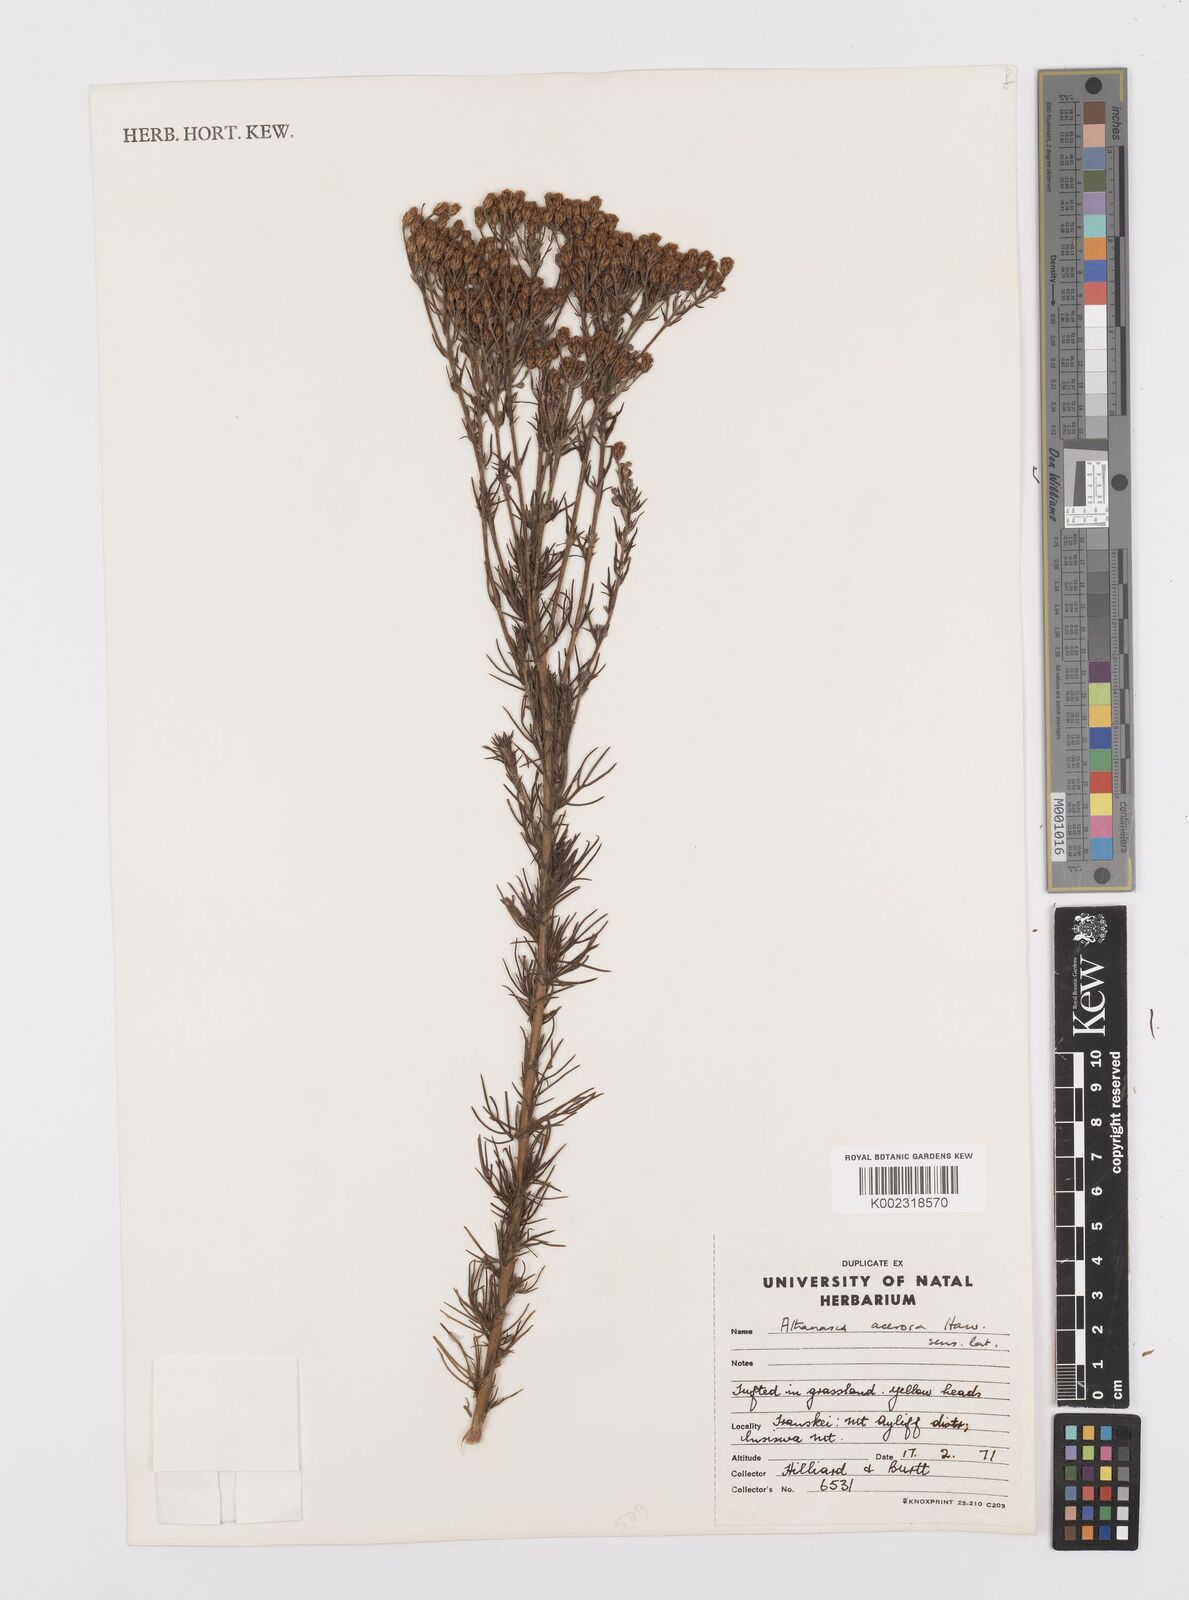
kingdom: Plantae
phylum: Tracheophyta
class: Magnoliopsida
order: Asterales
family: Asteraceae
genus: Phymaspermum
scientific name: Phymaspermum acerosum
